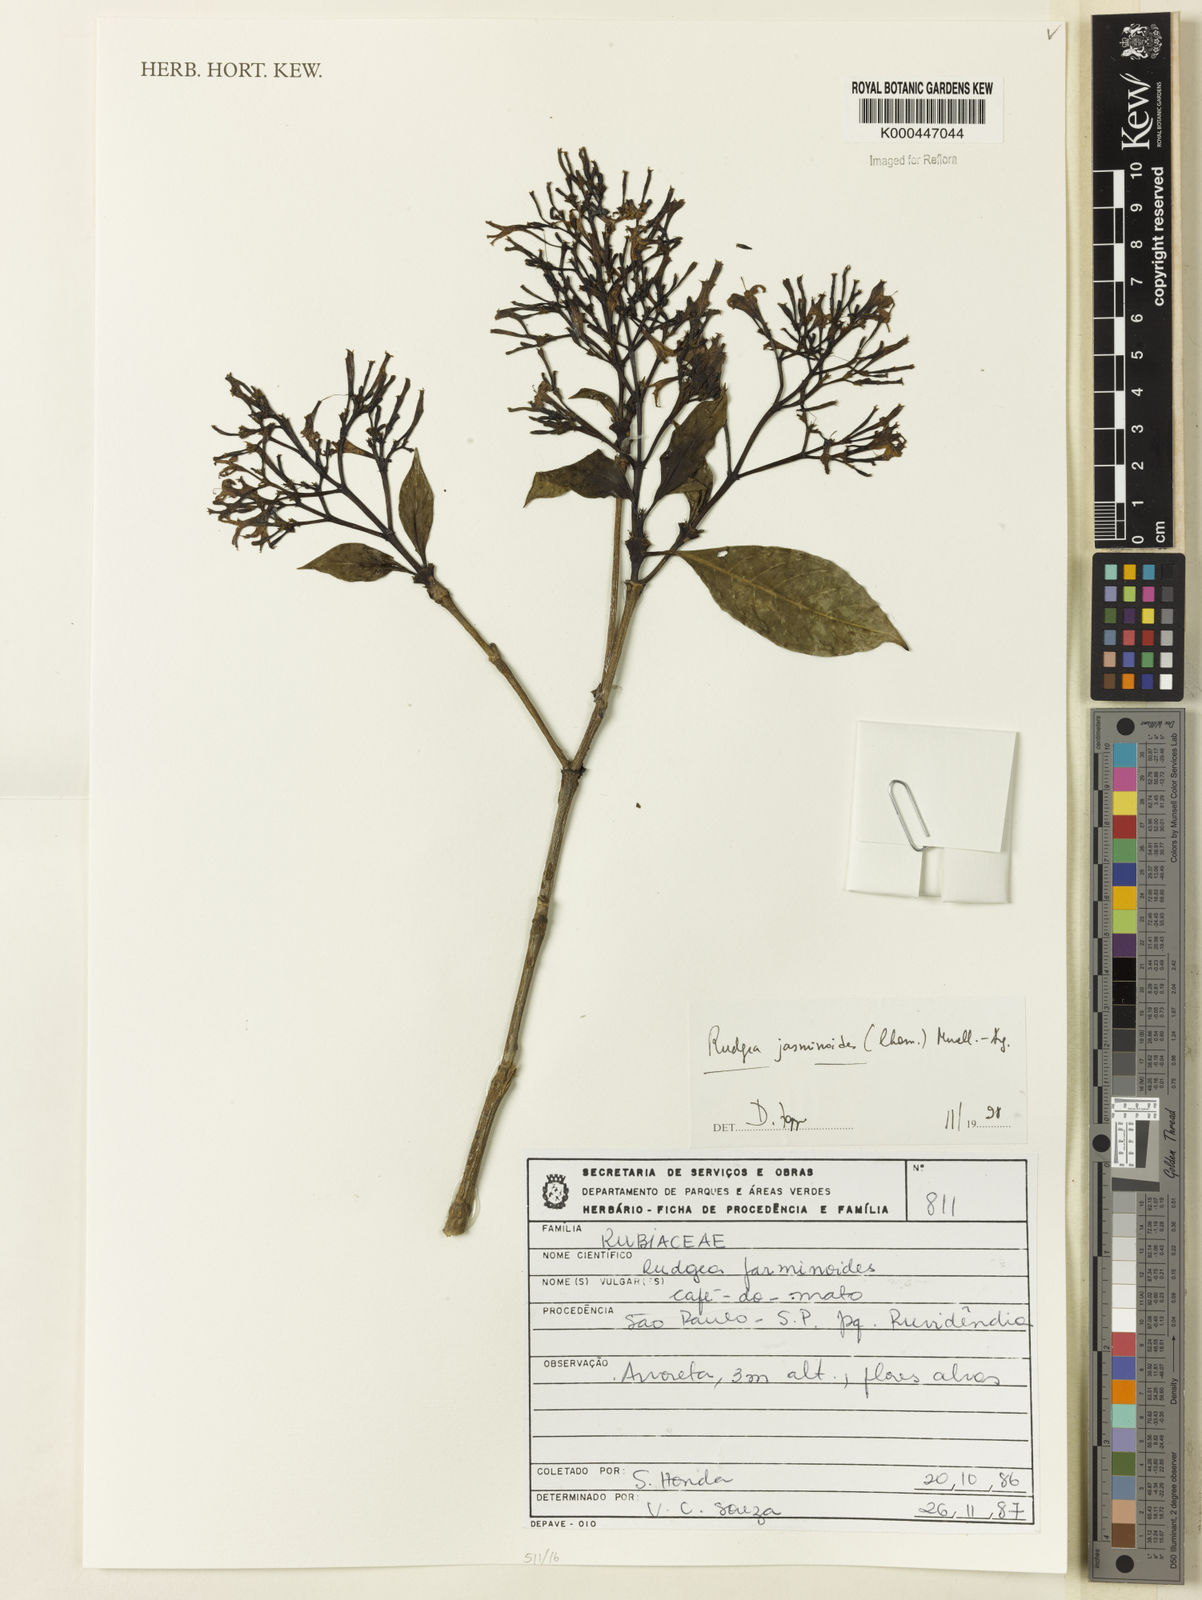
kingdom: Plantae
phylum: Tracheophyta
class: Magnoliopsida
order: Gentianales
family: Rubiaceae
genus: Rudgea
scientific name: Rudgea jasminoides
